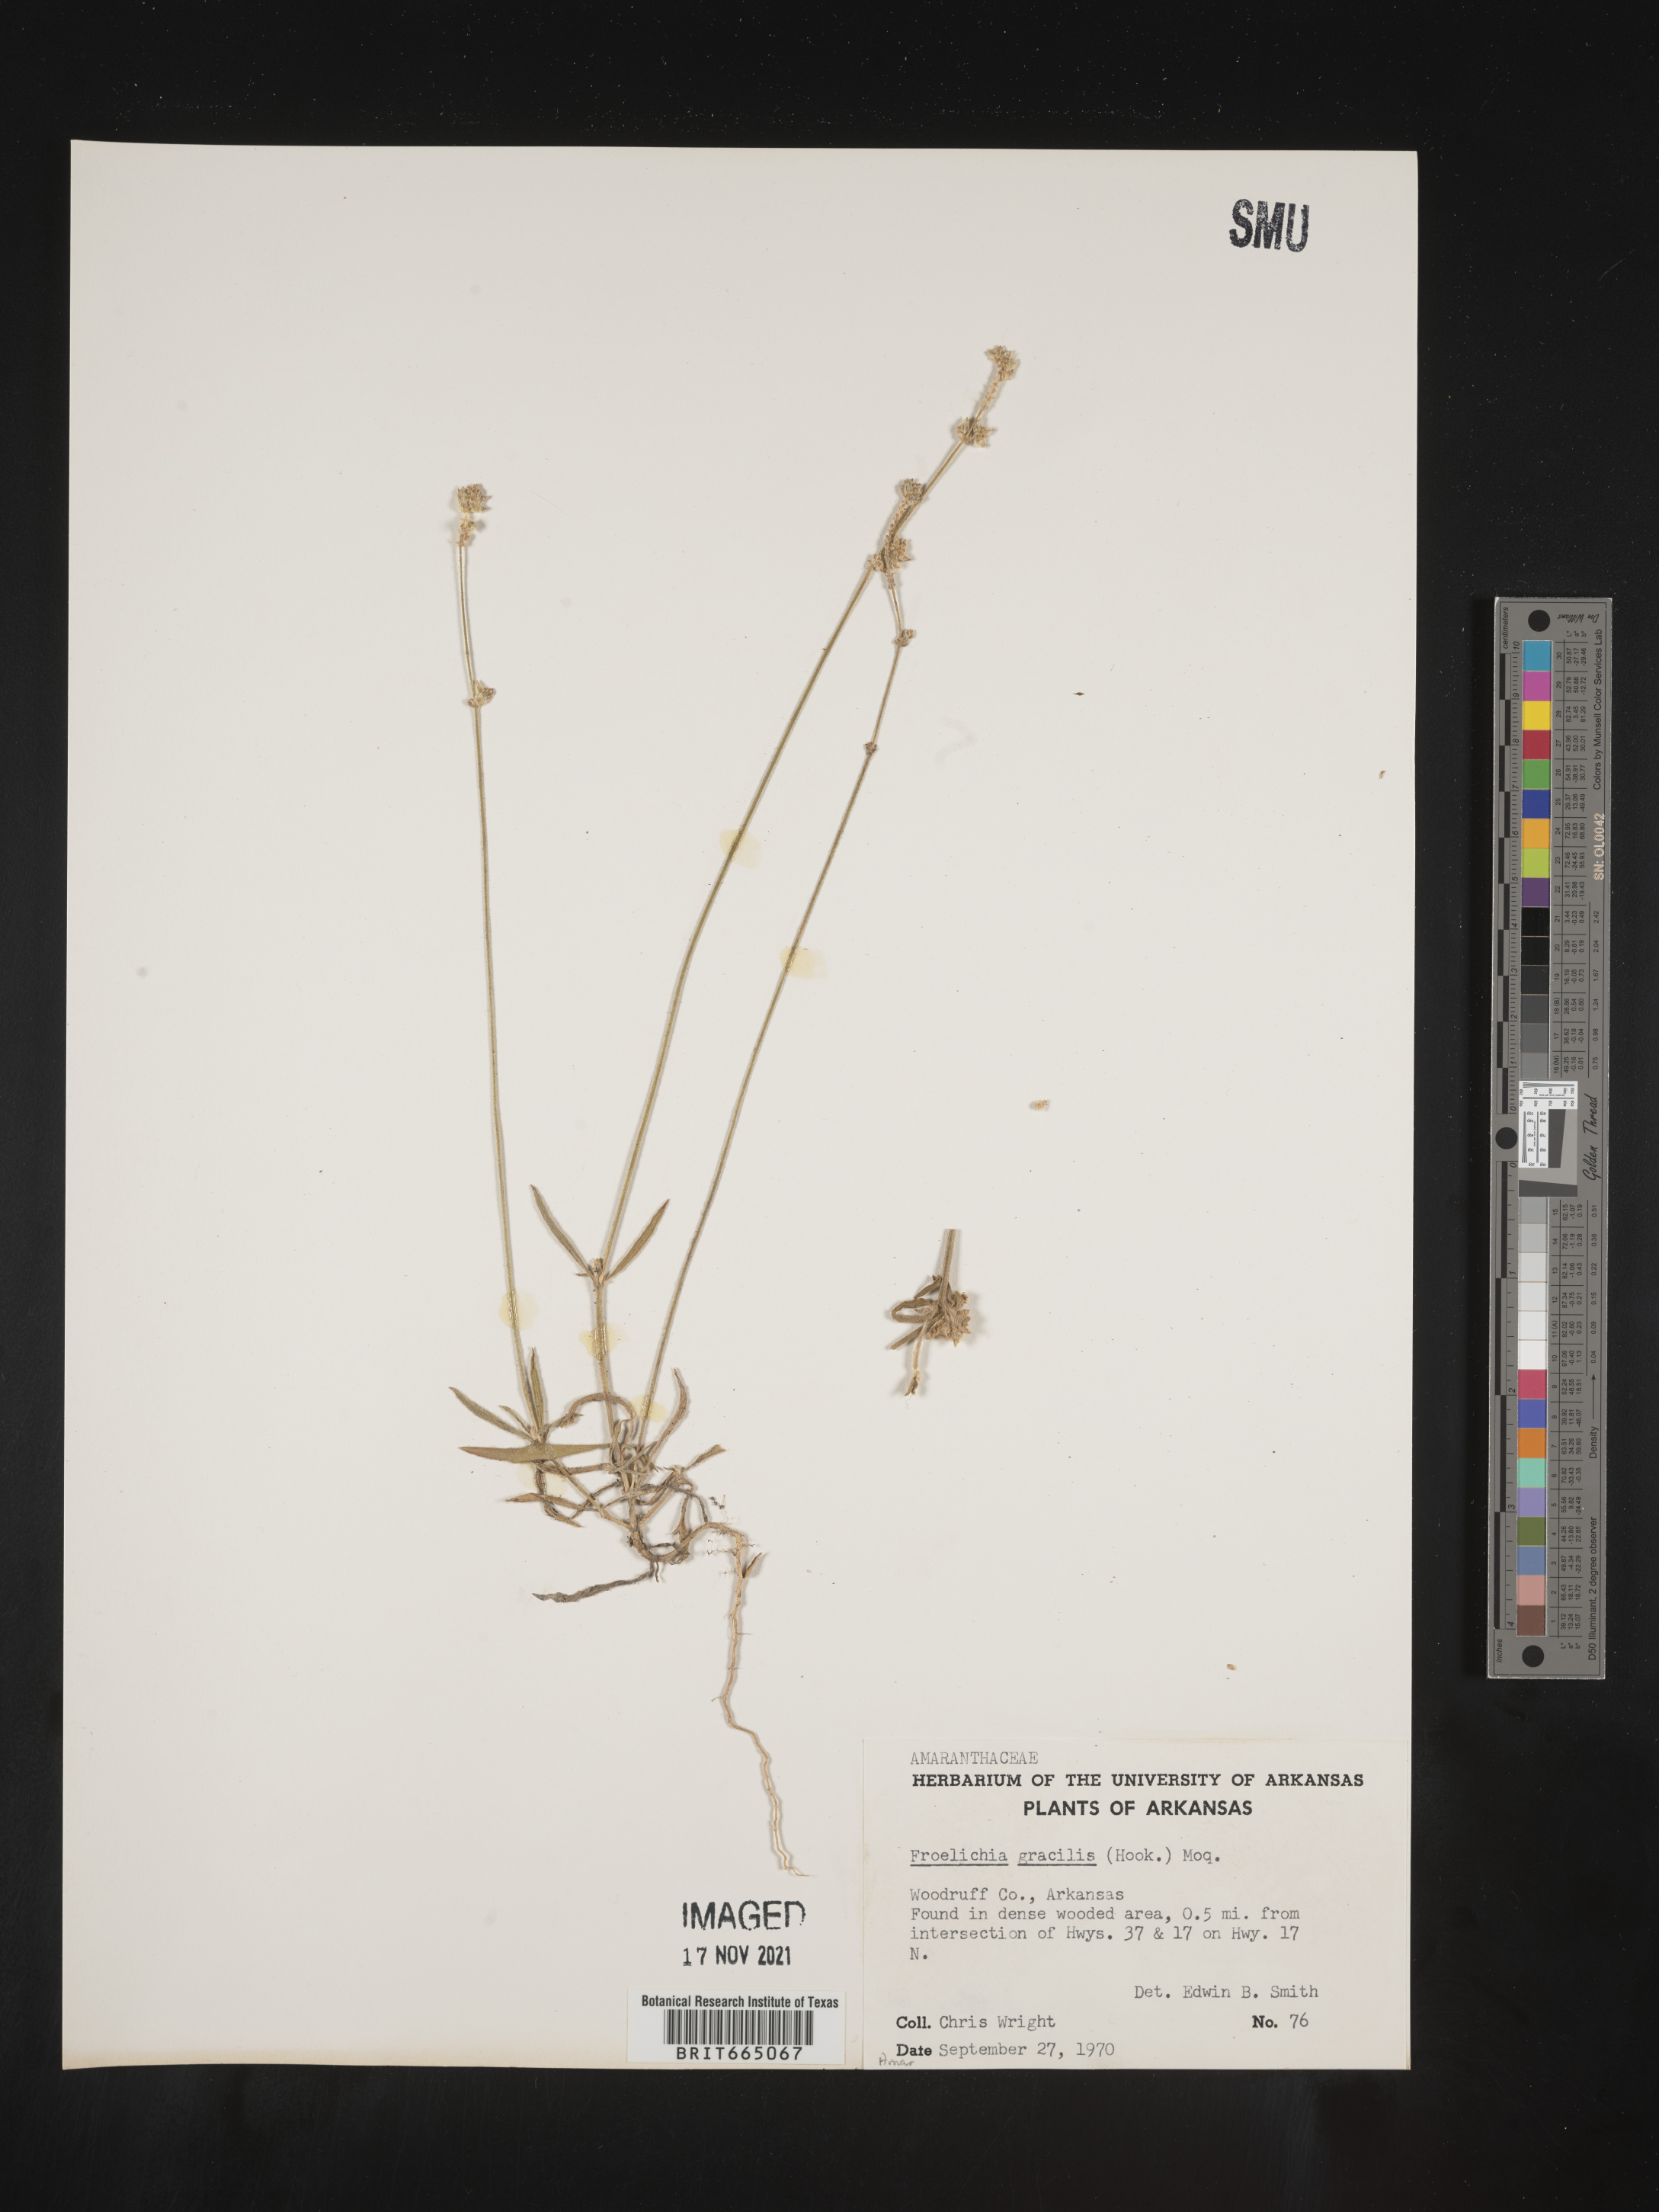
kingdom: Plantae
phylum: Tracheophyta
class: Magnoliopsida
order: Caryophyllales
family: Amaranthaceae
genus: Froelichia
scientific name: Froelichia gracilis
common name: Slender cottonweed
